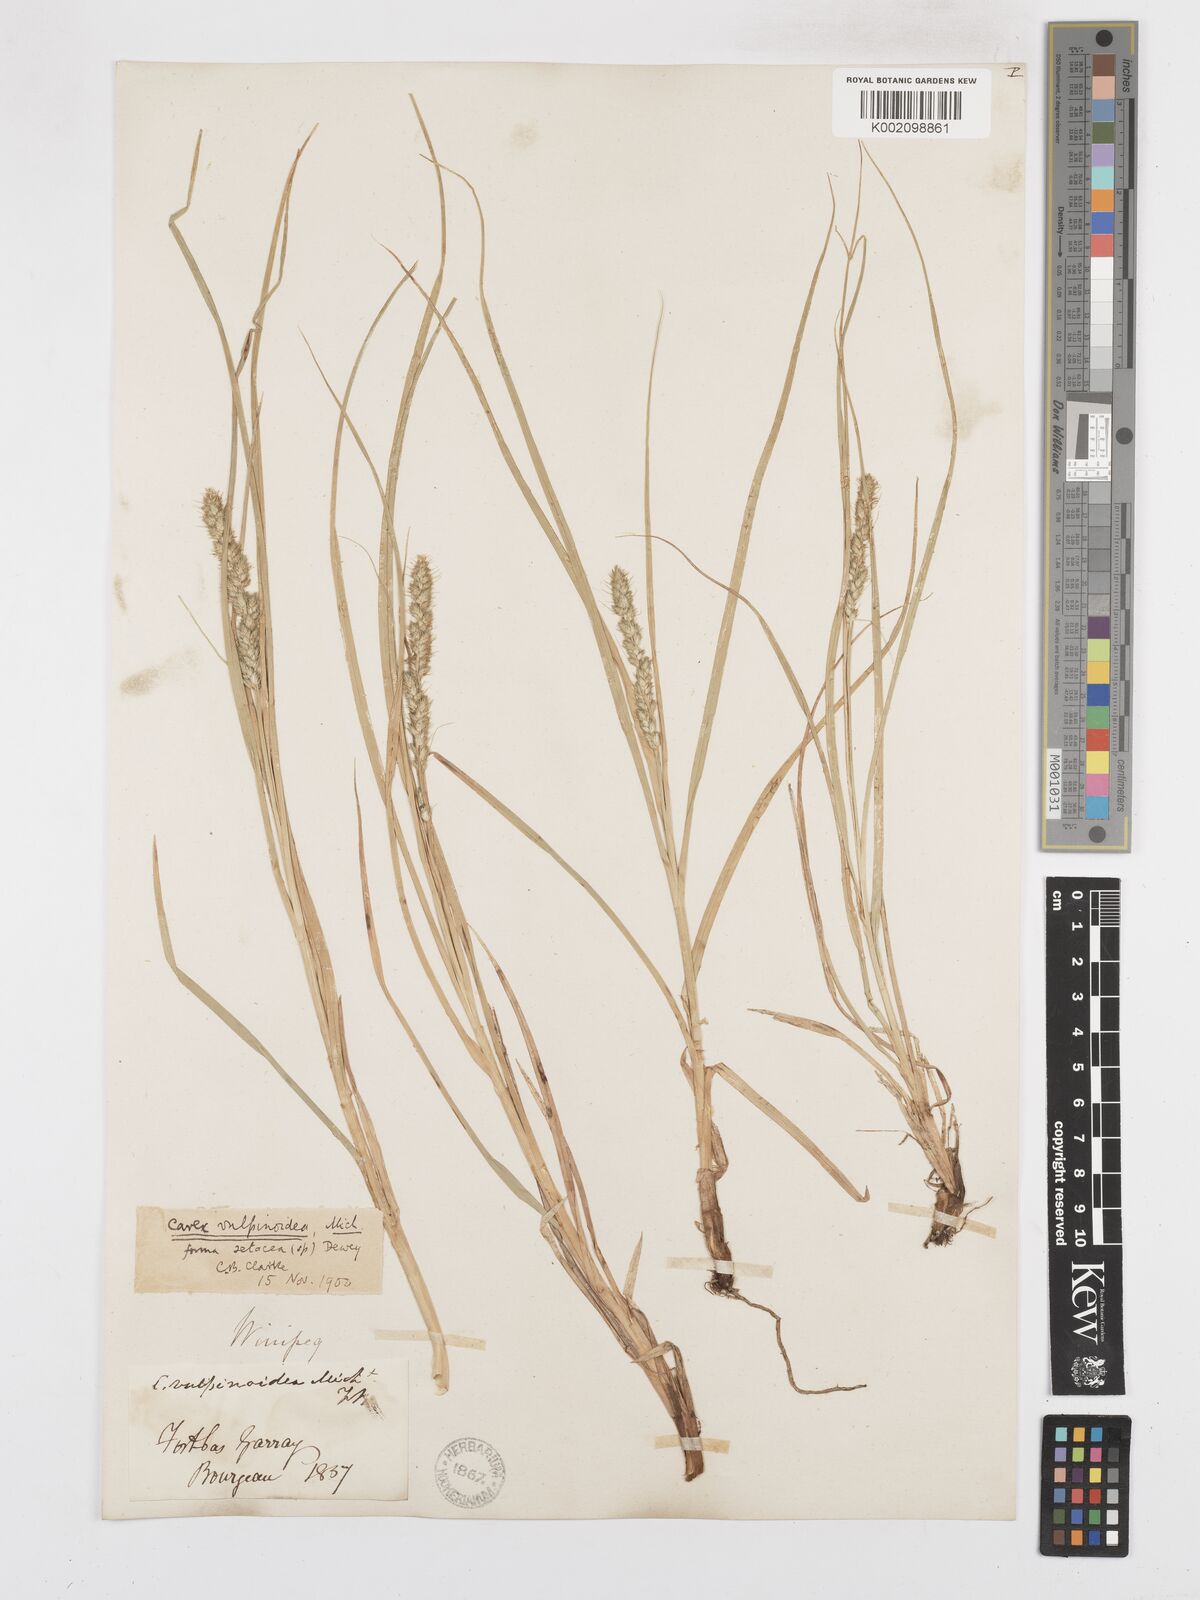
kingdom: Plantae
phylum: Tracheophyta
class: Liliopsida
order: Poales
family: Cyperaceae
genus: Carex
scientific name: Carex vulpinoidea
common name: American fox-sedge
